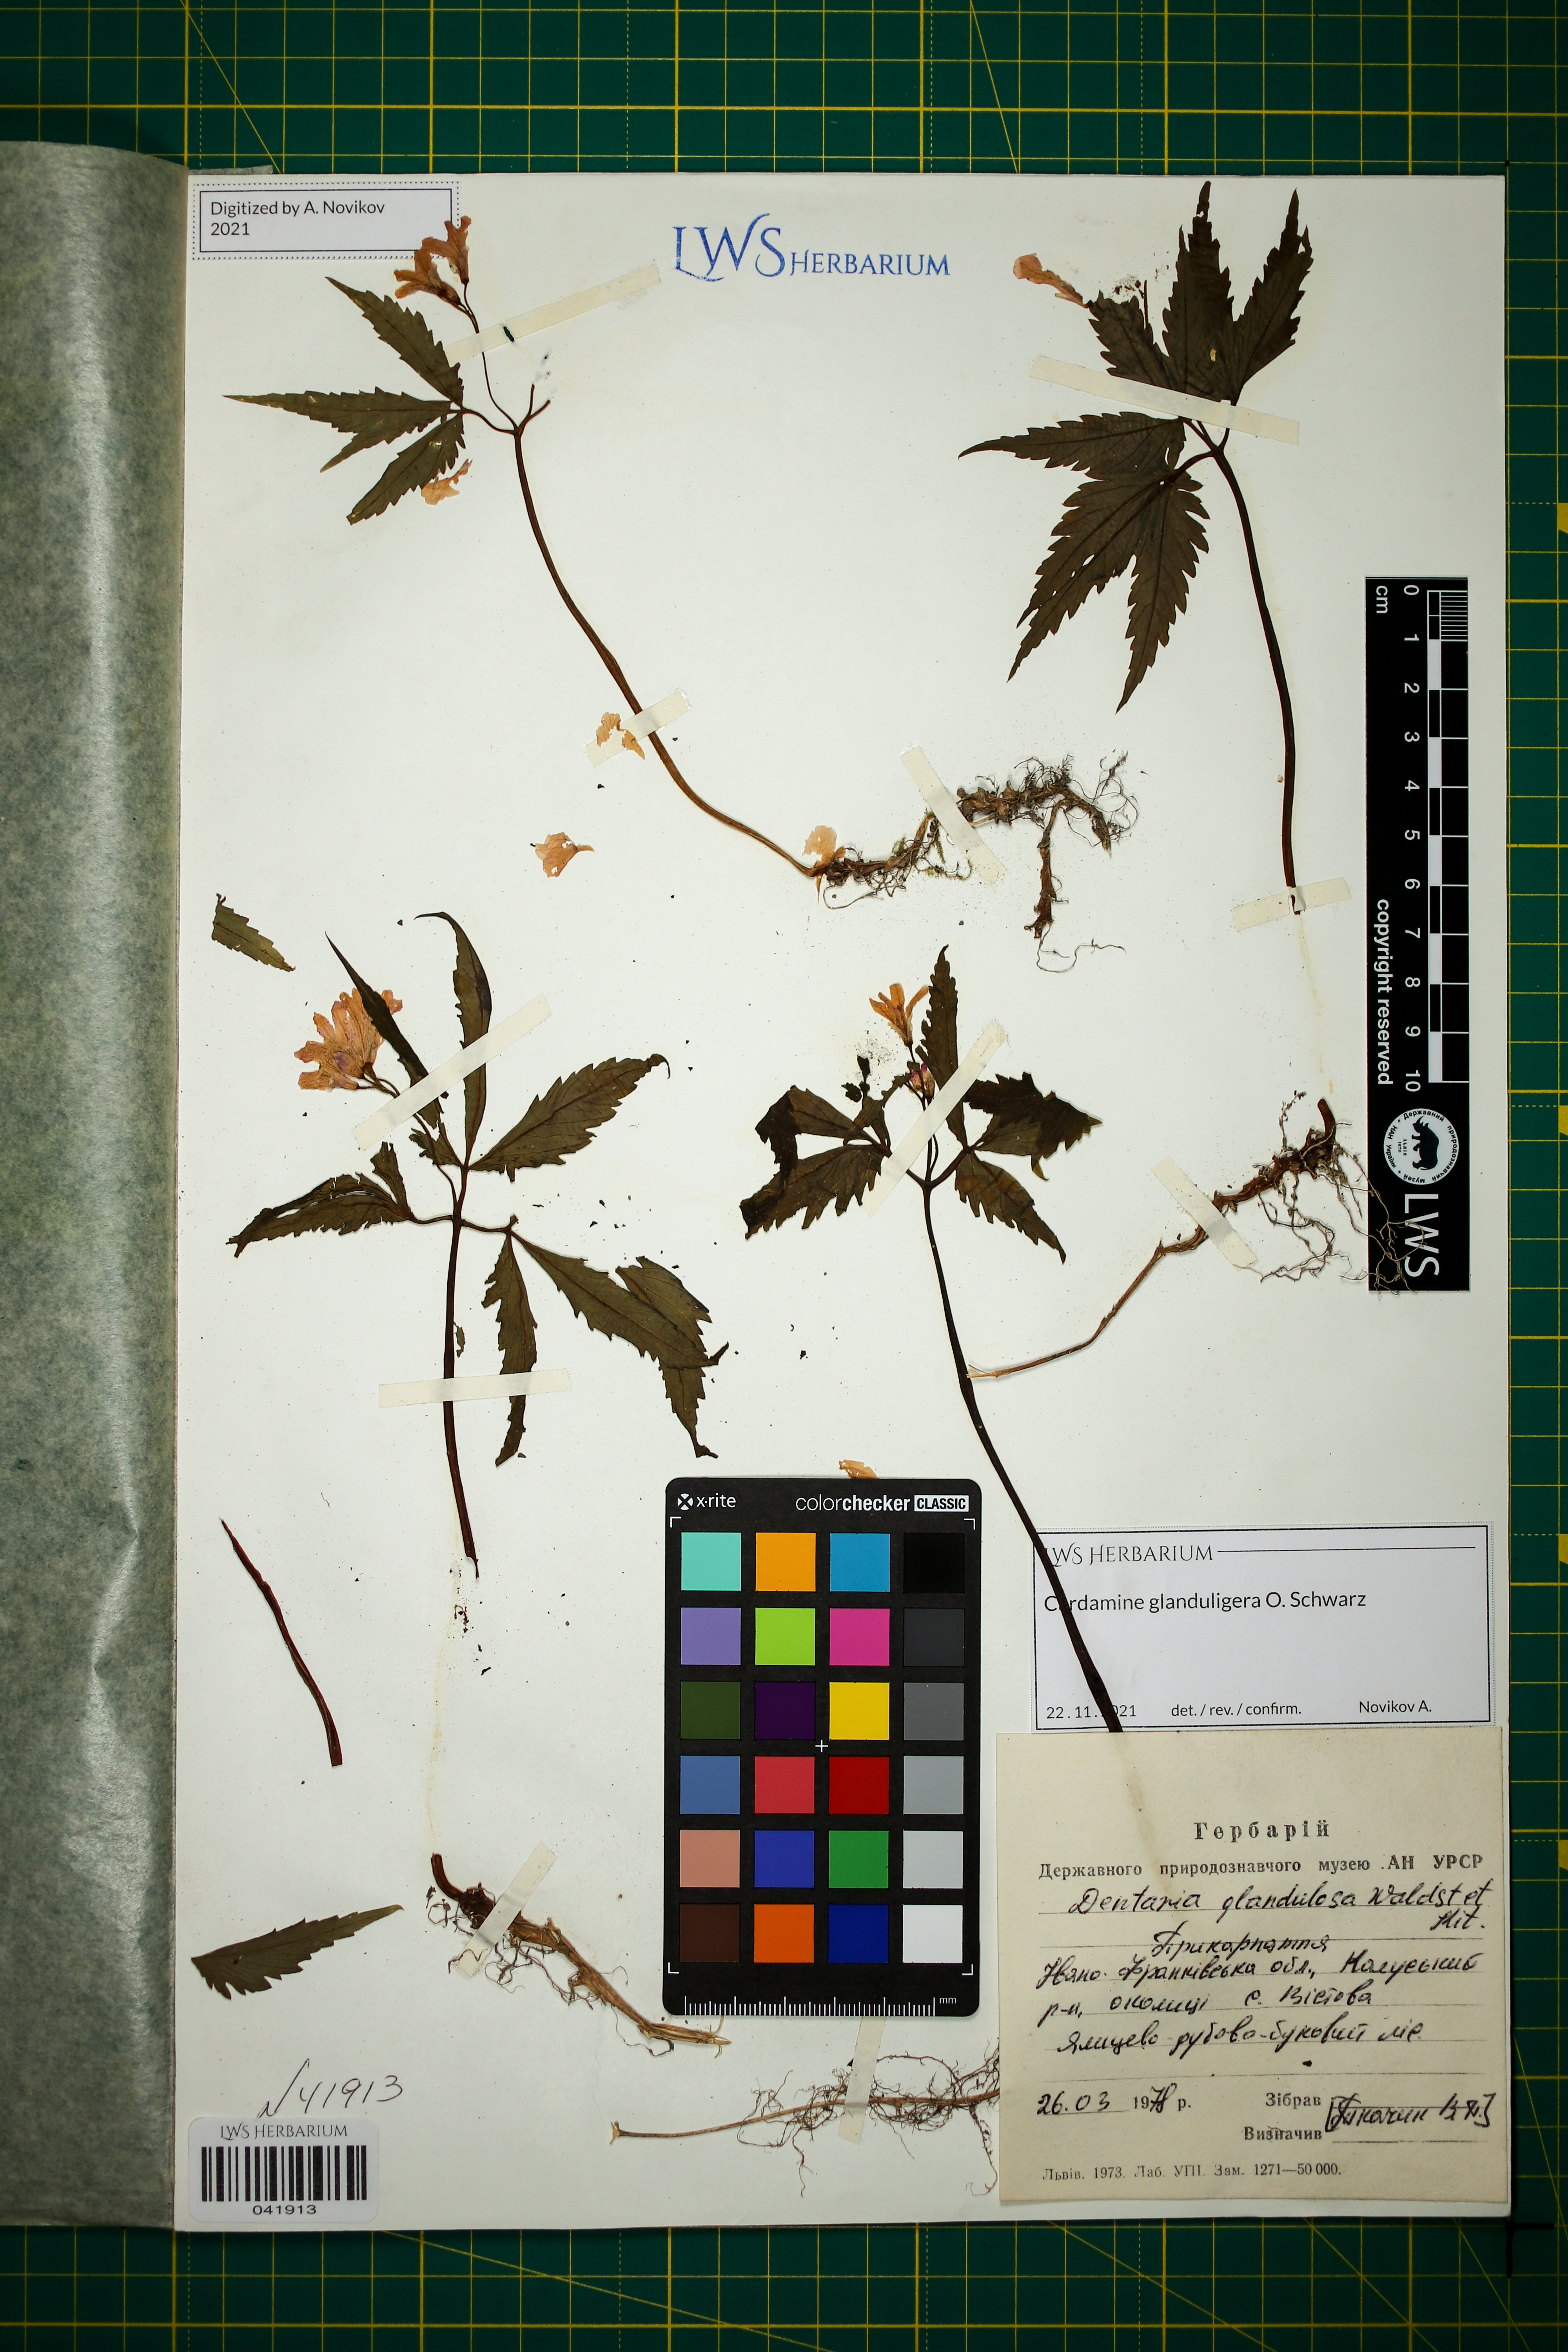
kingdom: Plantae
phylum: Tracheophyta
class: Magnoliopsida
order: Brassicales
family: Brassicaceae
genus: Cardamine
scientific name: Cardamine glanduligera
